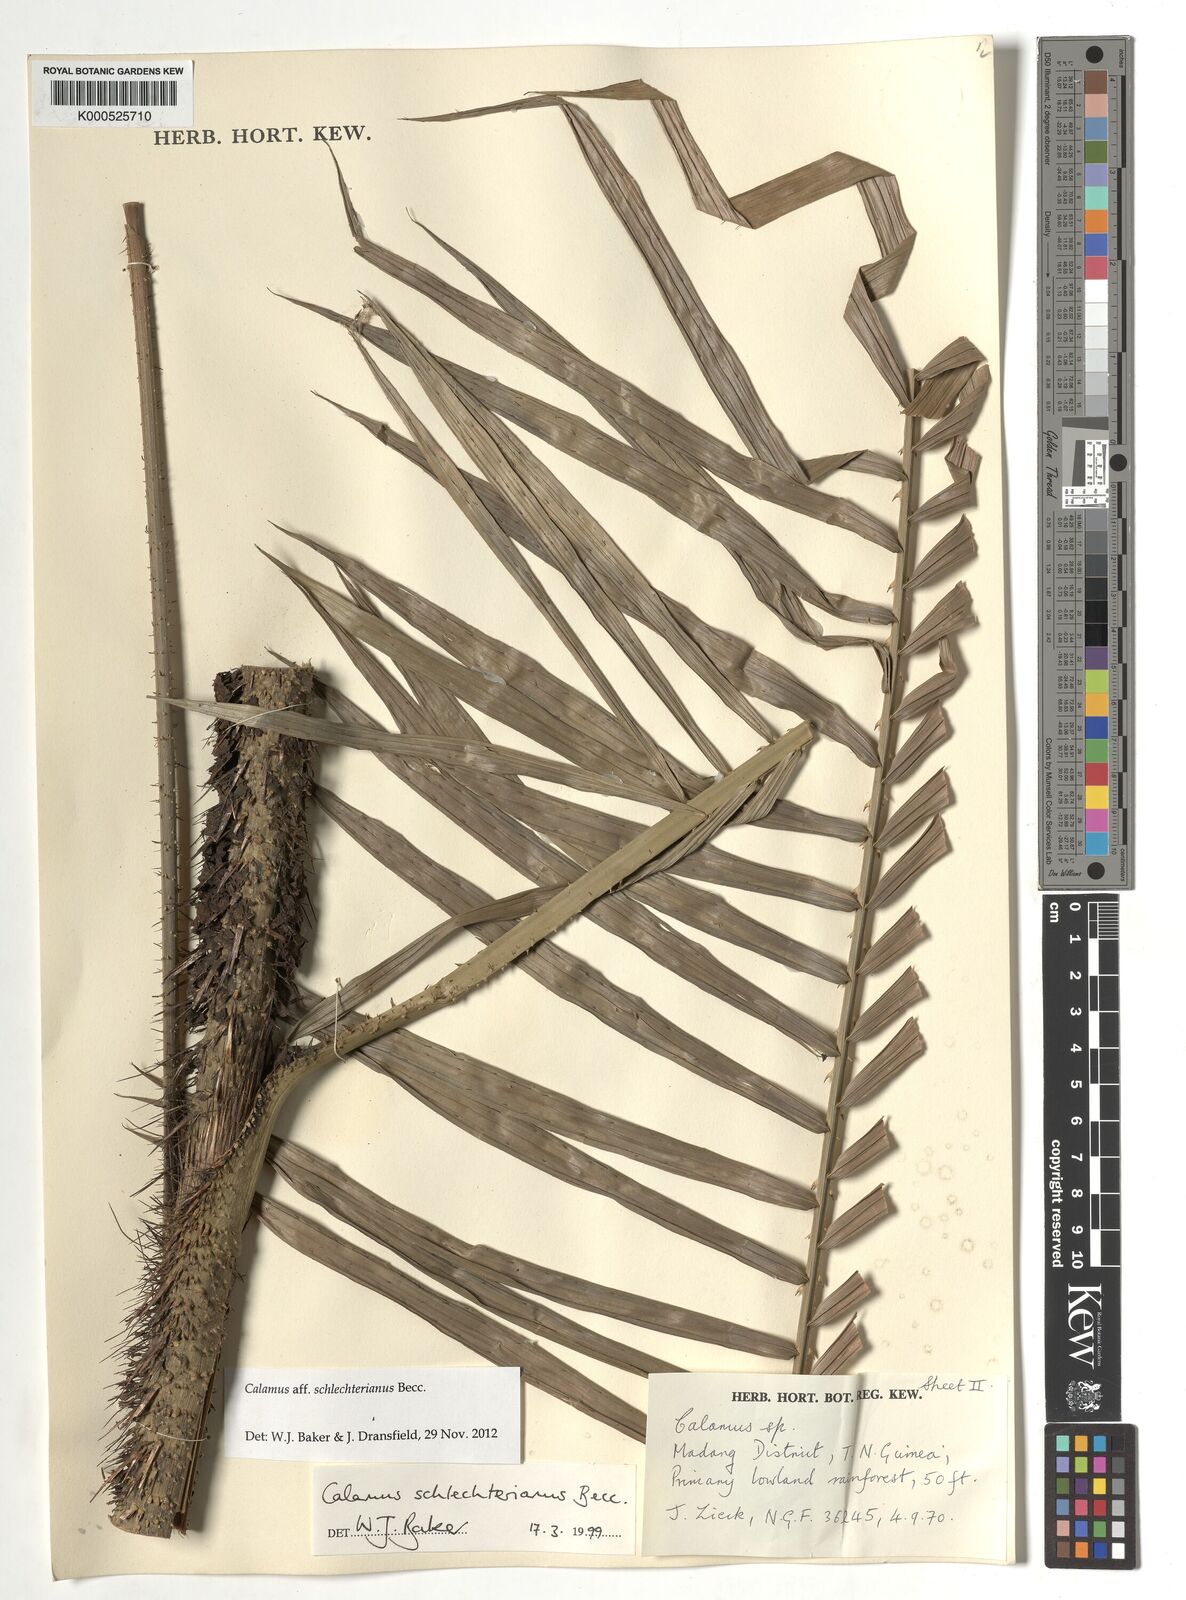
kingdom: Plantae
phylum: Tracheophyta
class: Liliopsida
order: Arecales
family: Arecaceae
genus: Calamus
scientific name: Calamus schlechterianus
